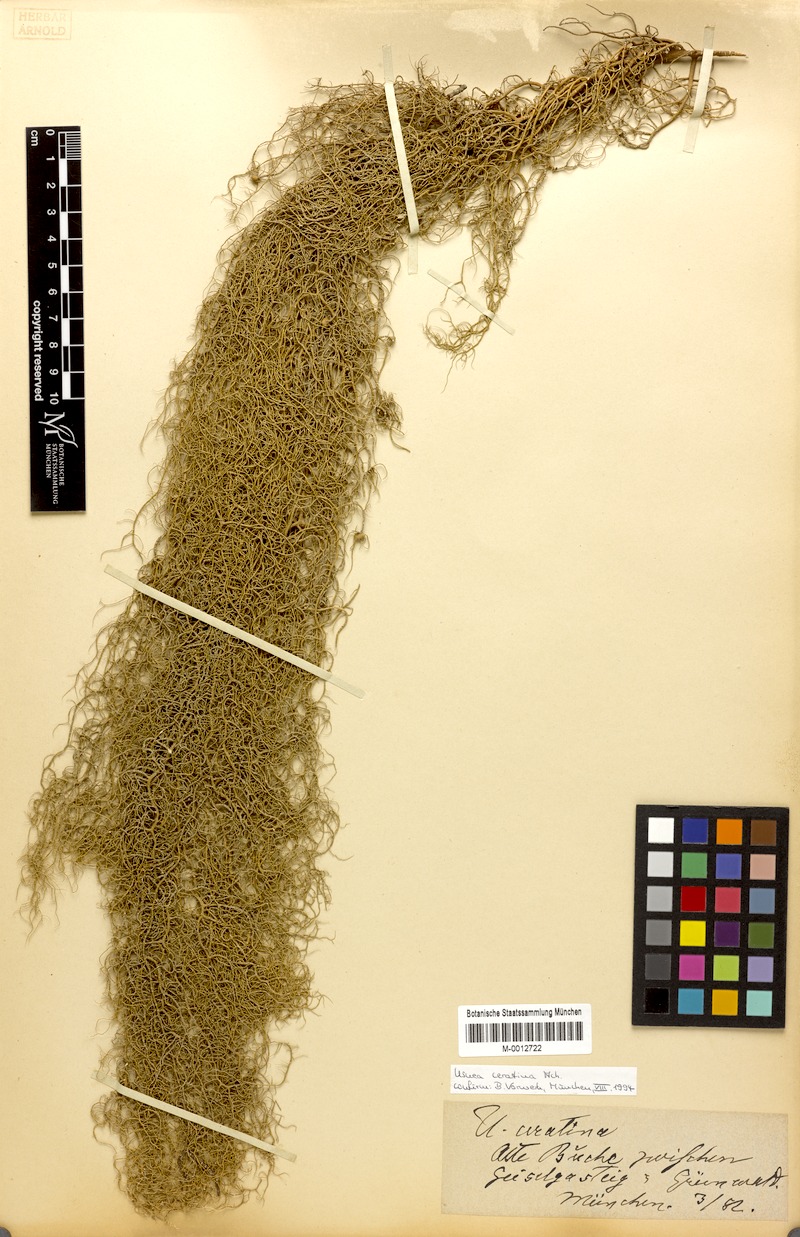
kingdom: Fungi
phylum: Ascomycota
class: Lecanoromycetes
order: Lecanorales
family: Parmeliaceae
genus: Usnea
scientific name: Usnea ceratina
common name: Warty beard lichen
